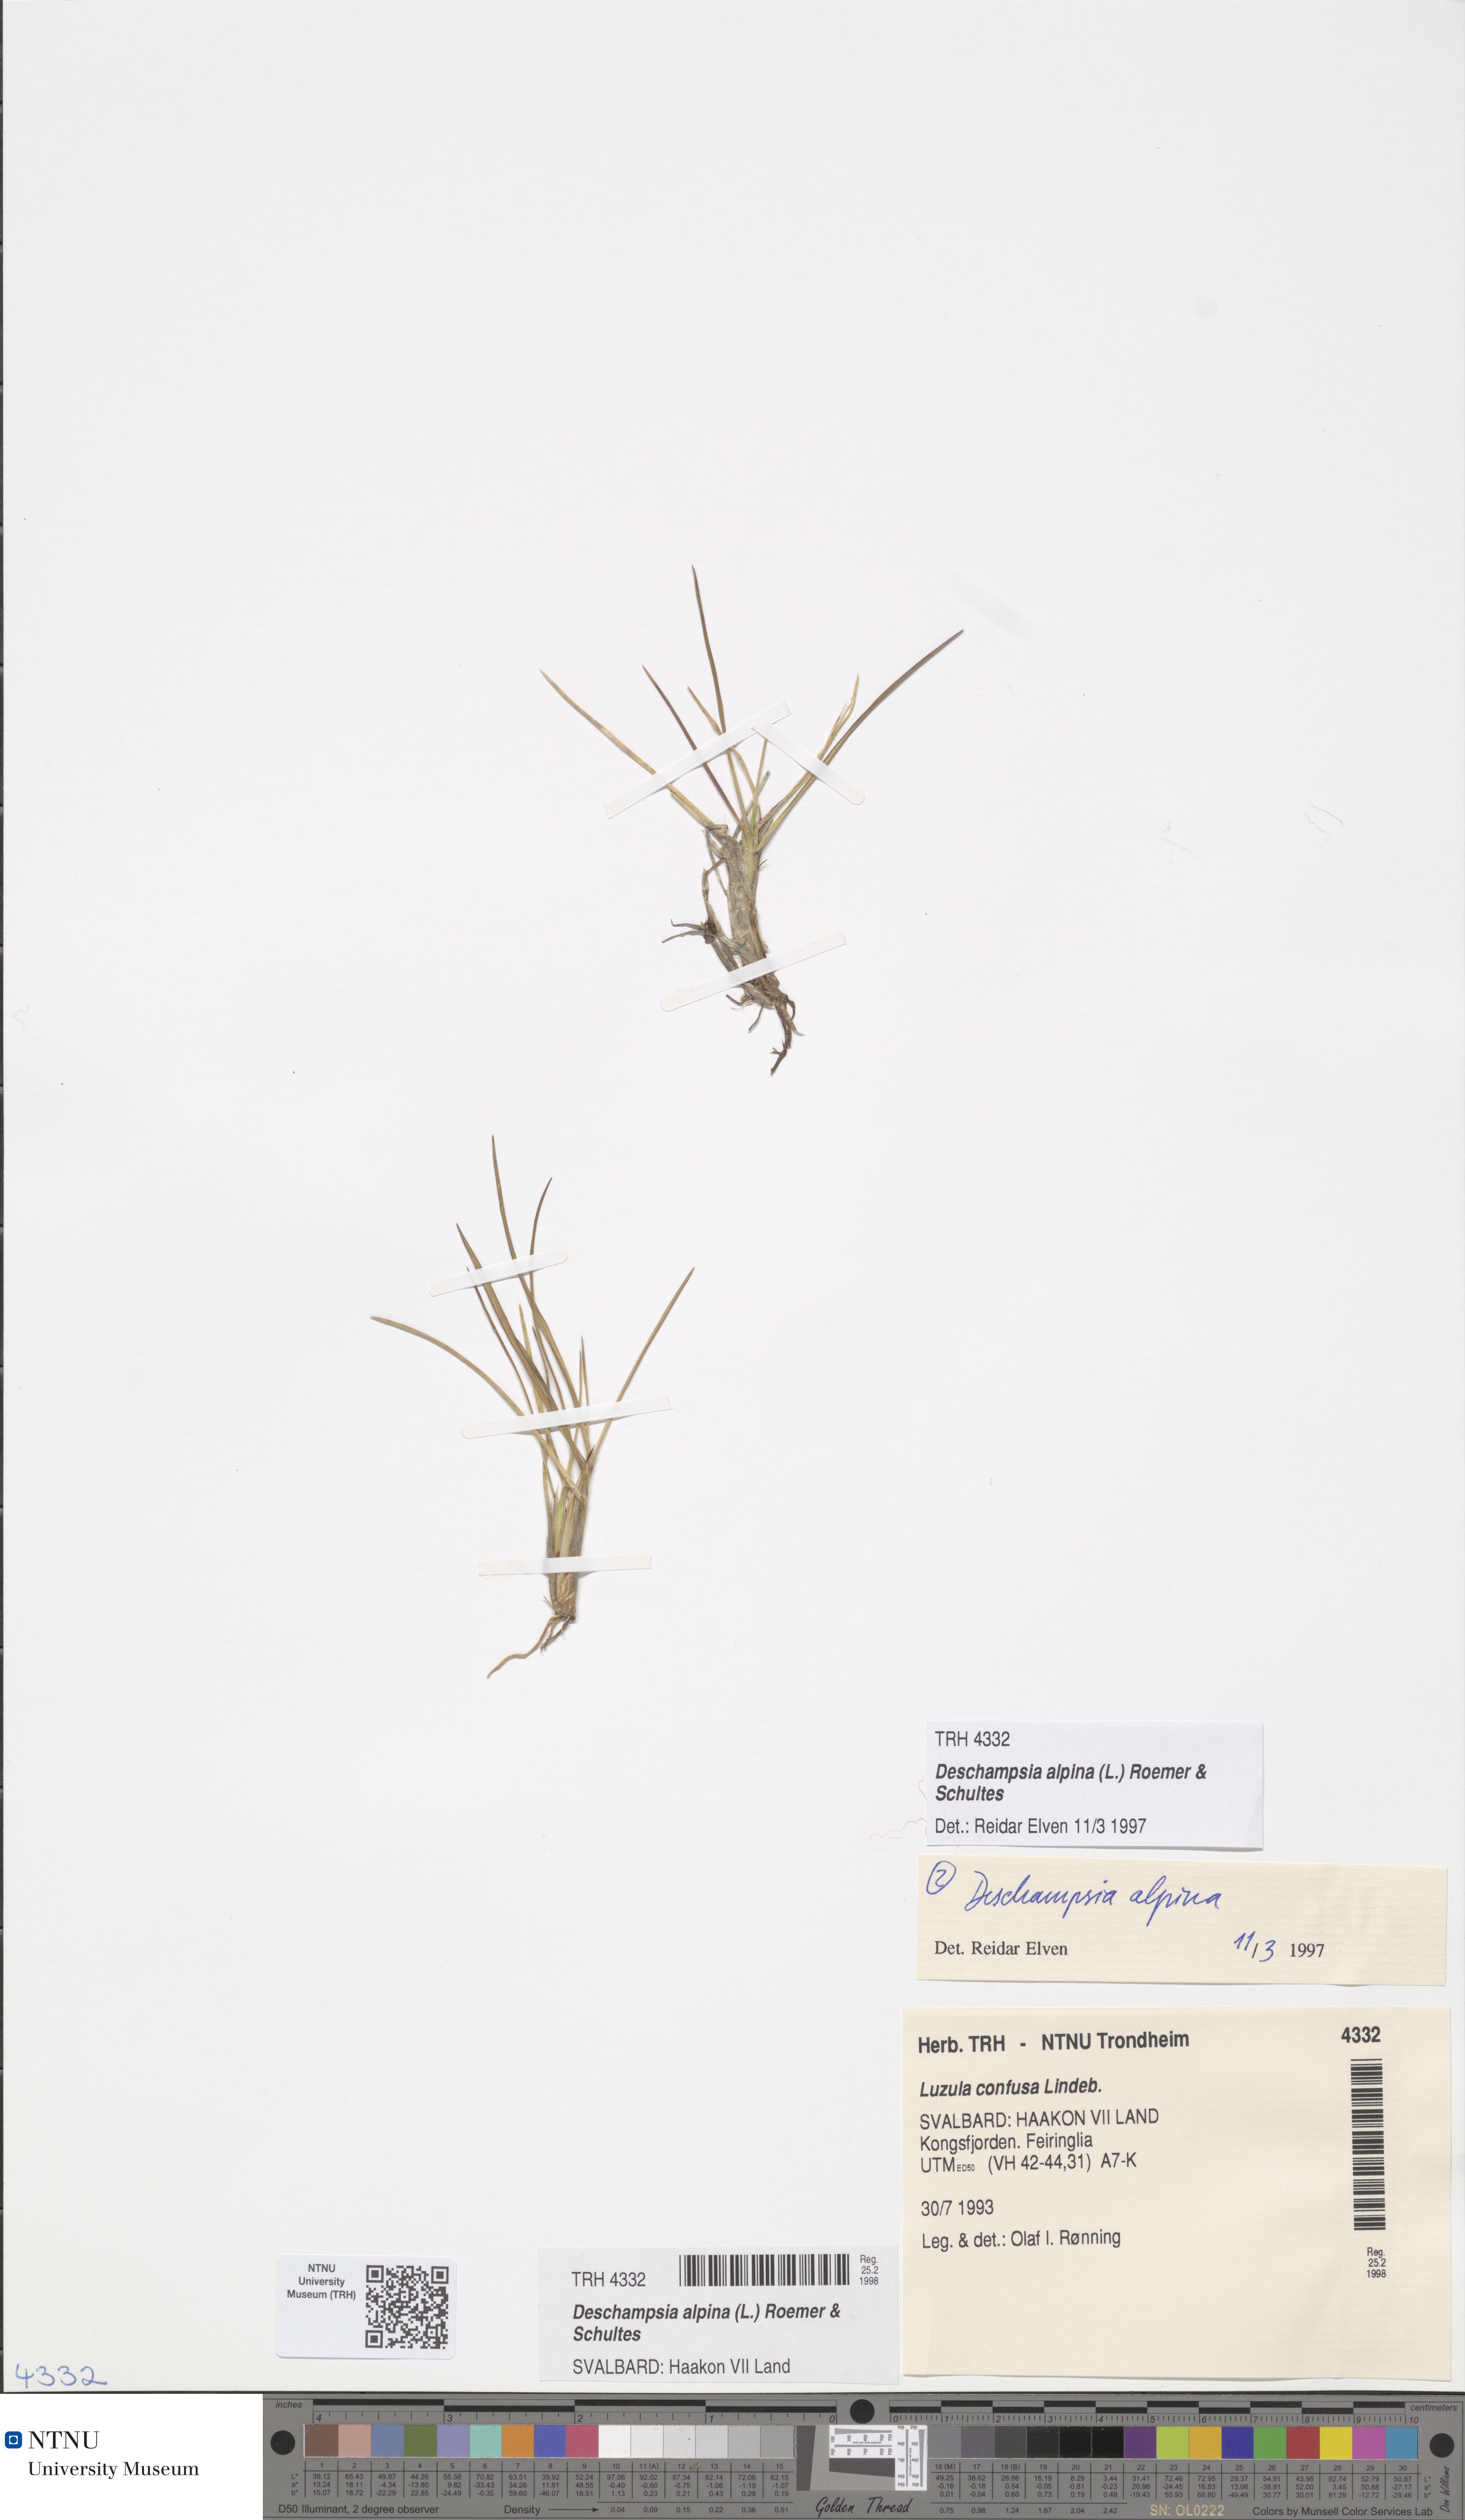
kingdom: Plantae
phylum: Tracheophyta
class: Liliopsida
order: Poales
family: Poaceae
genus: Deschampsia
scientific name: Deschampsia cespitosa
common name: Tufted hair-grass
